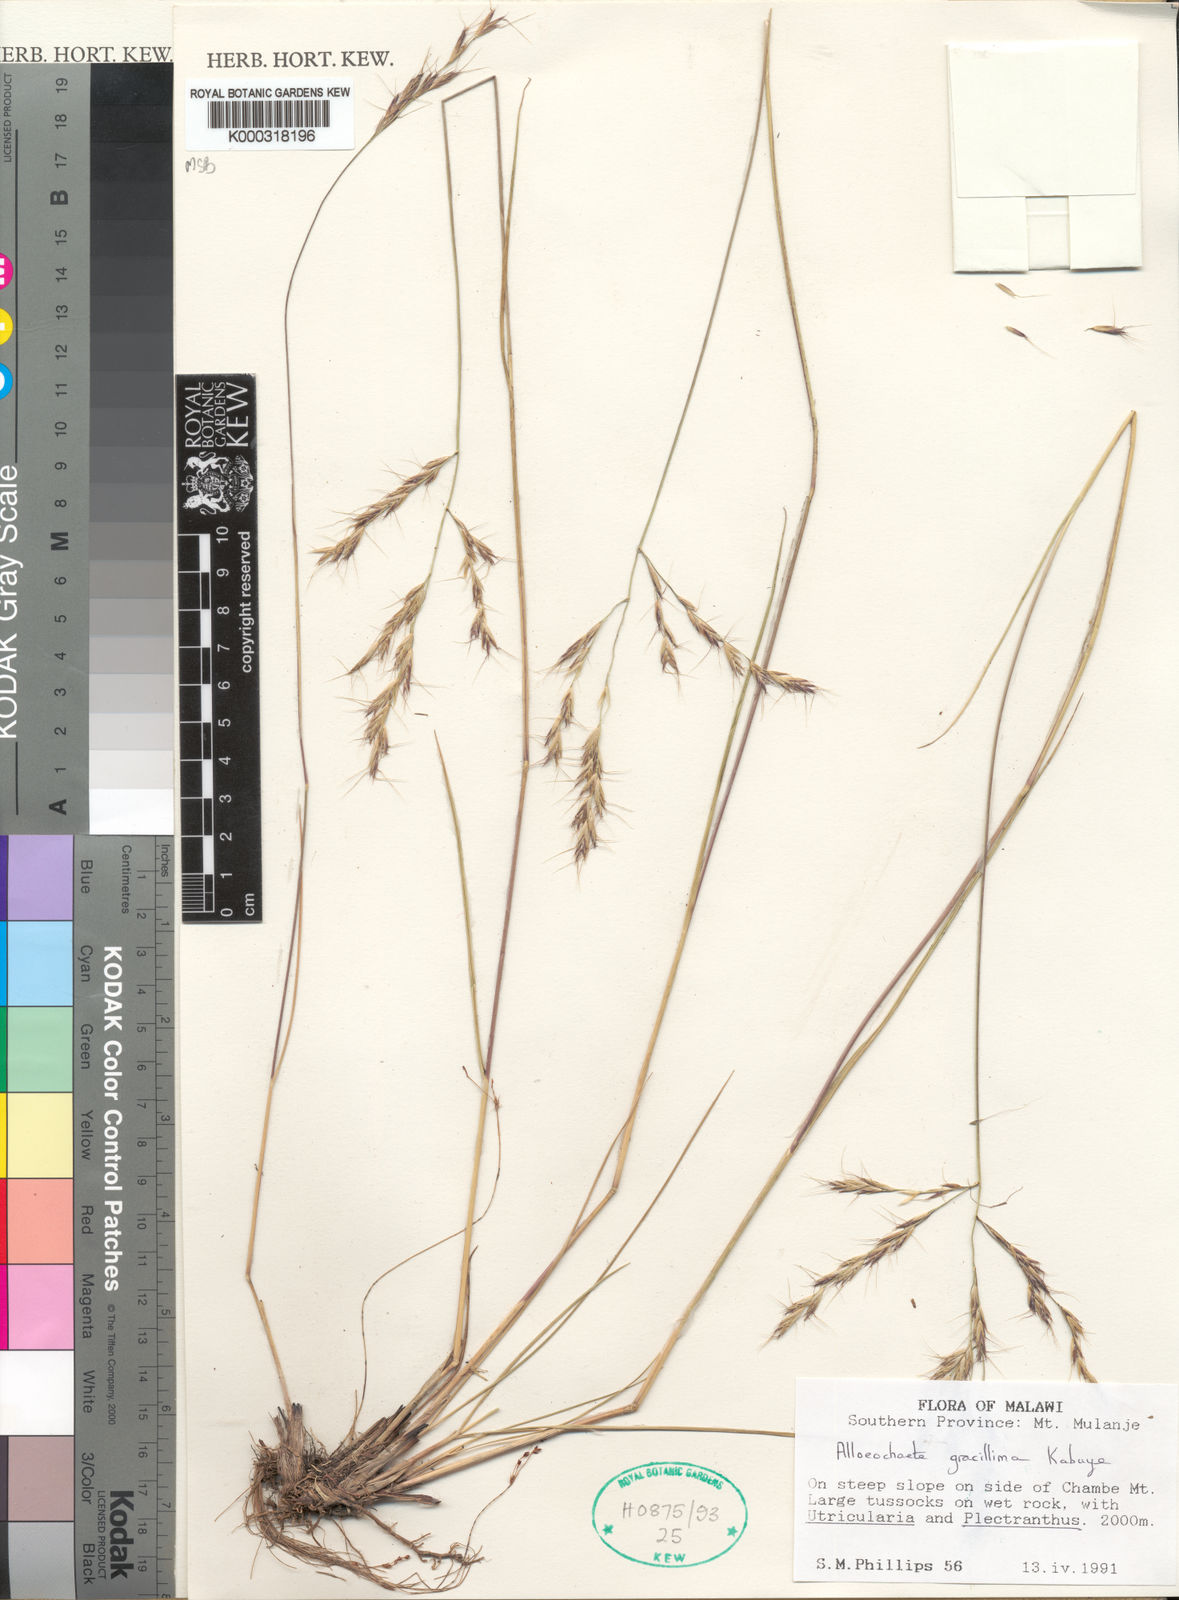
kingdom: Plantae
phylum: Tracheophyta
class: Liliopsida
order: Poales
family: Poaceae
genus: Alloeochaete
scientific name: Alloeochaete gracillima
